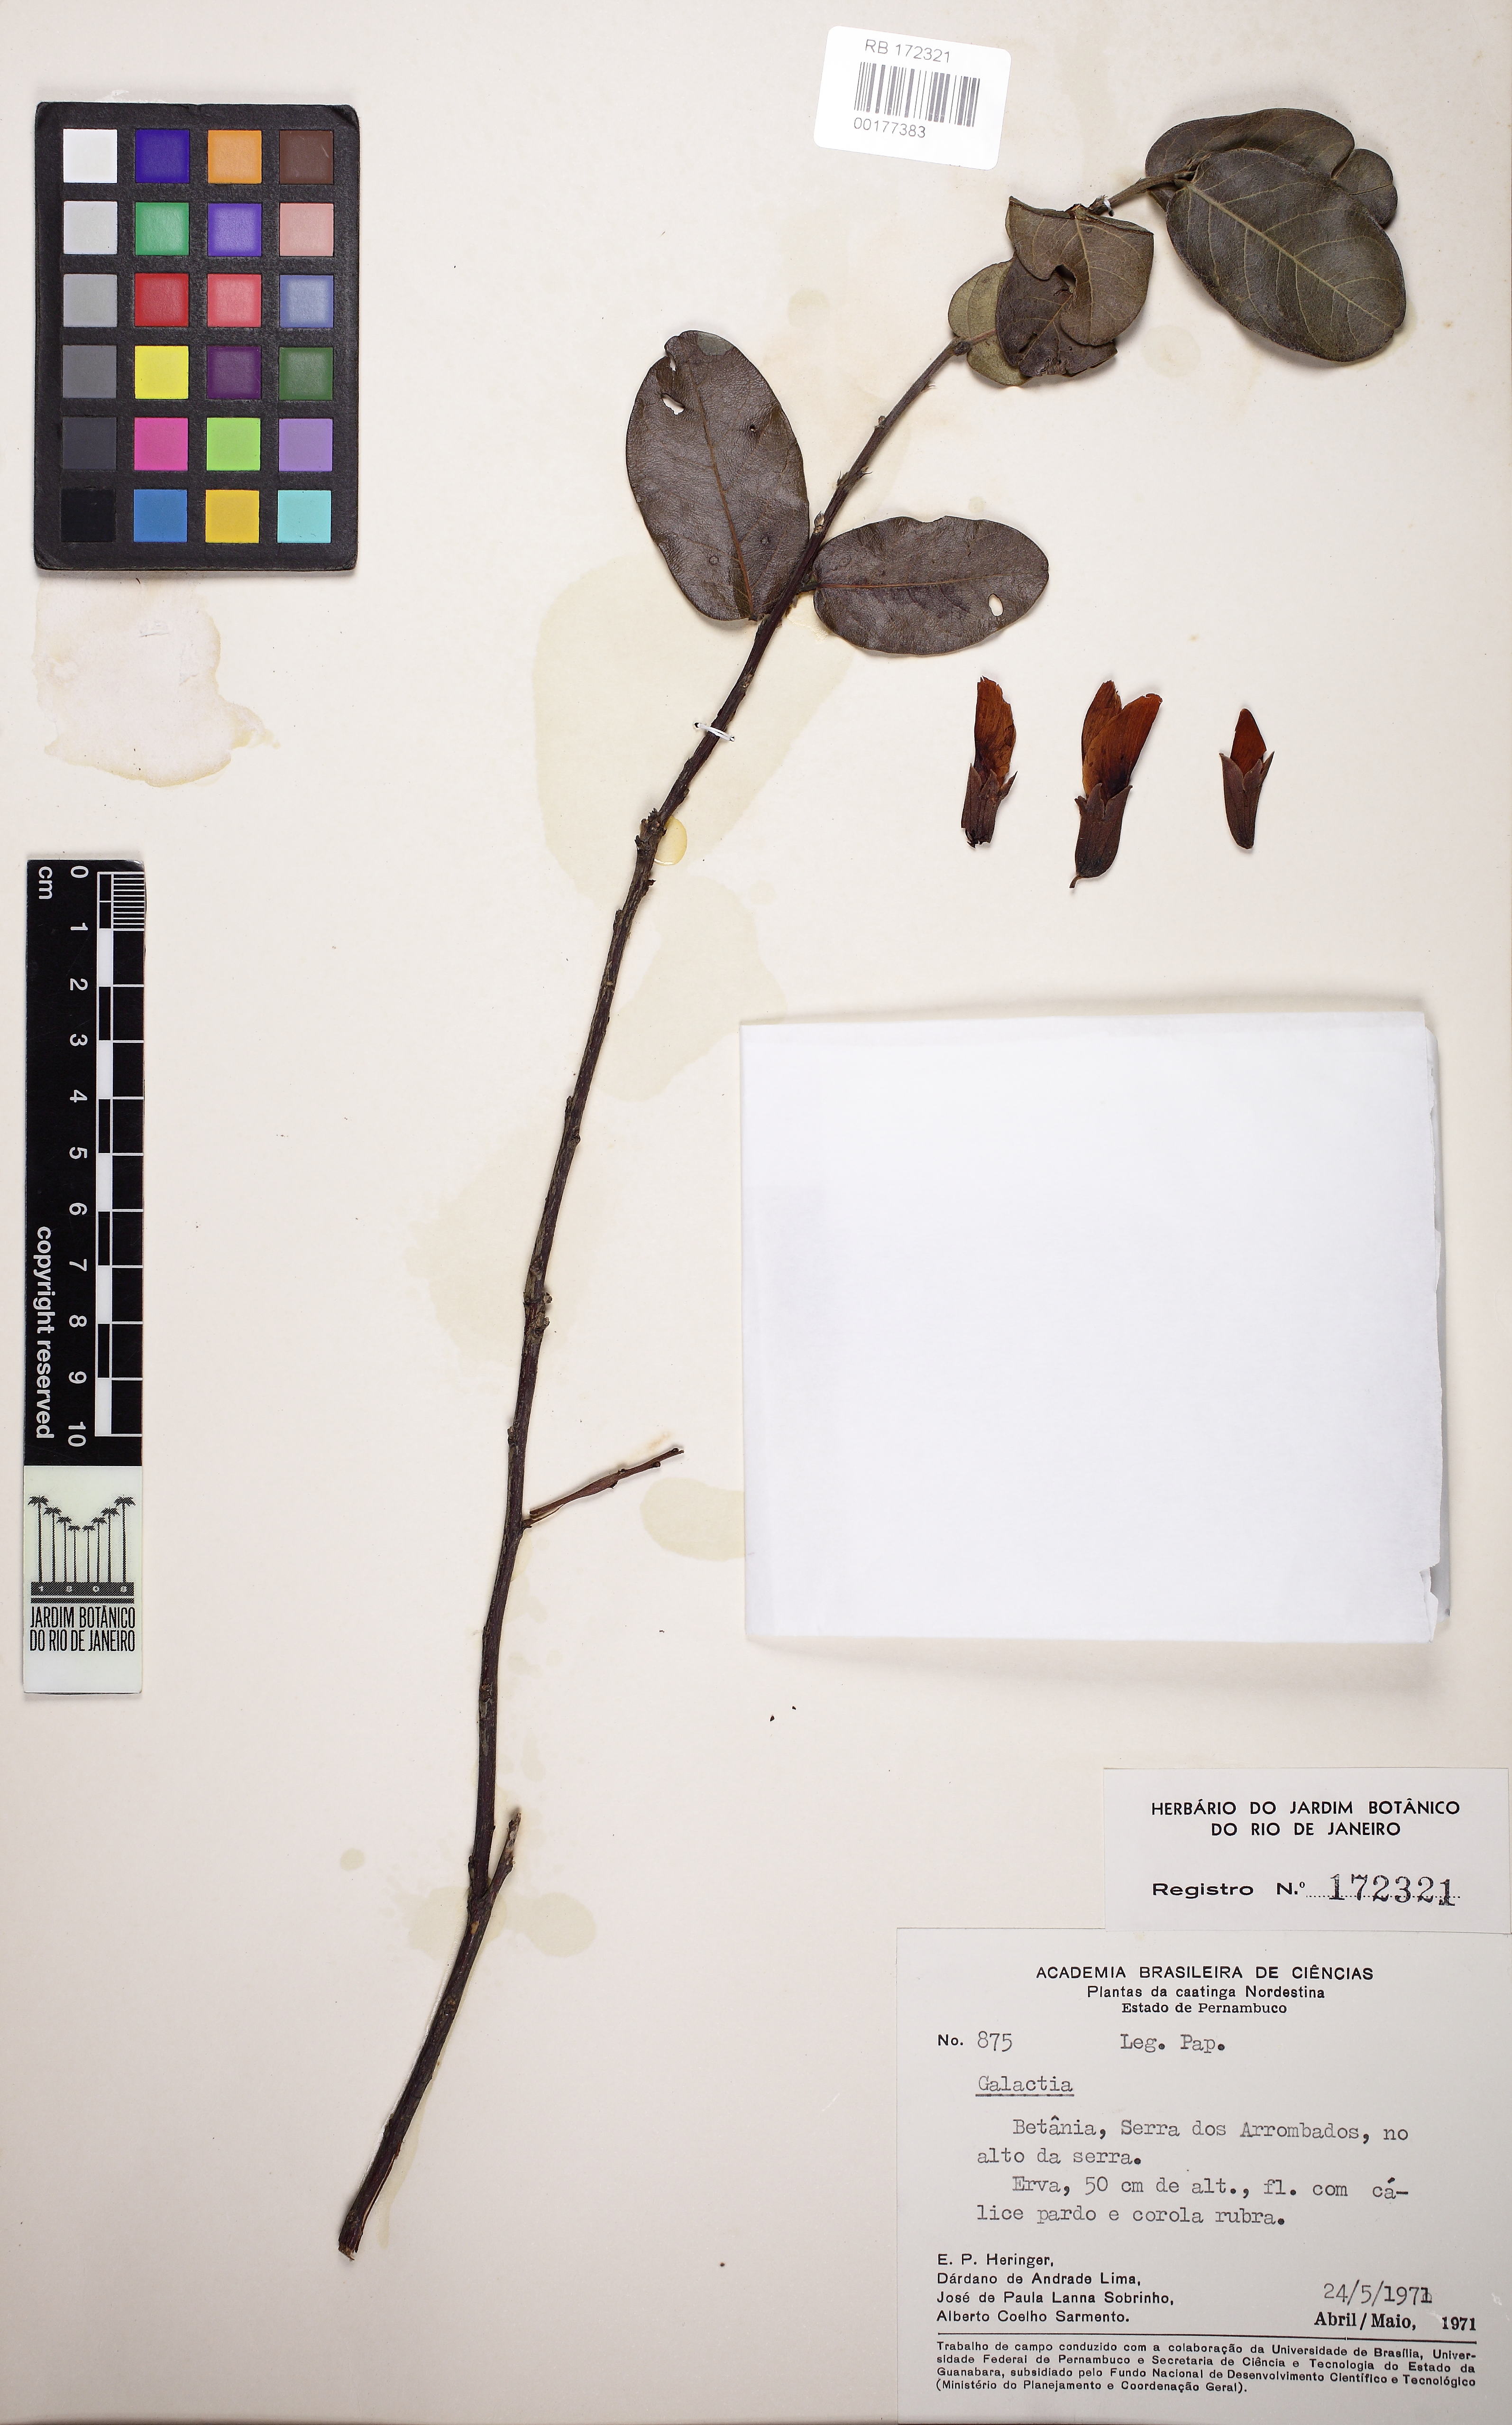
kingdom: Plantae
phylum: Tracheophyta
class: Magnoliopsida
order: Fabales
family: Fabaceae
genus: Galactia
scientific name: Galactia
